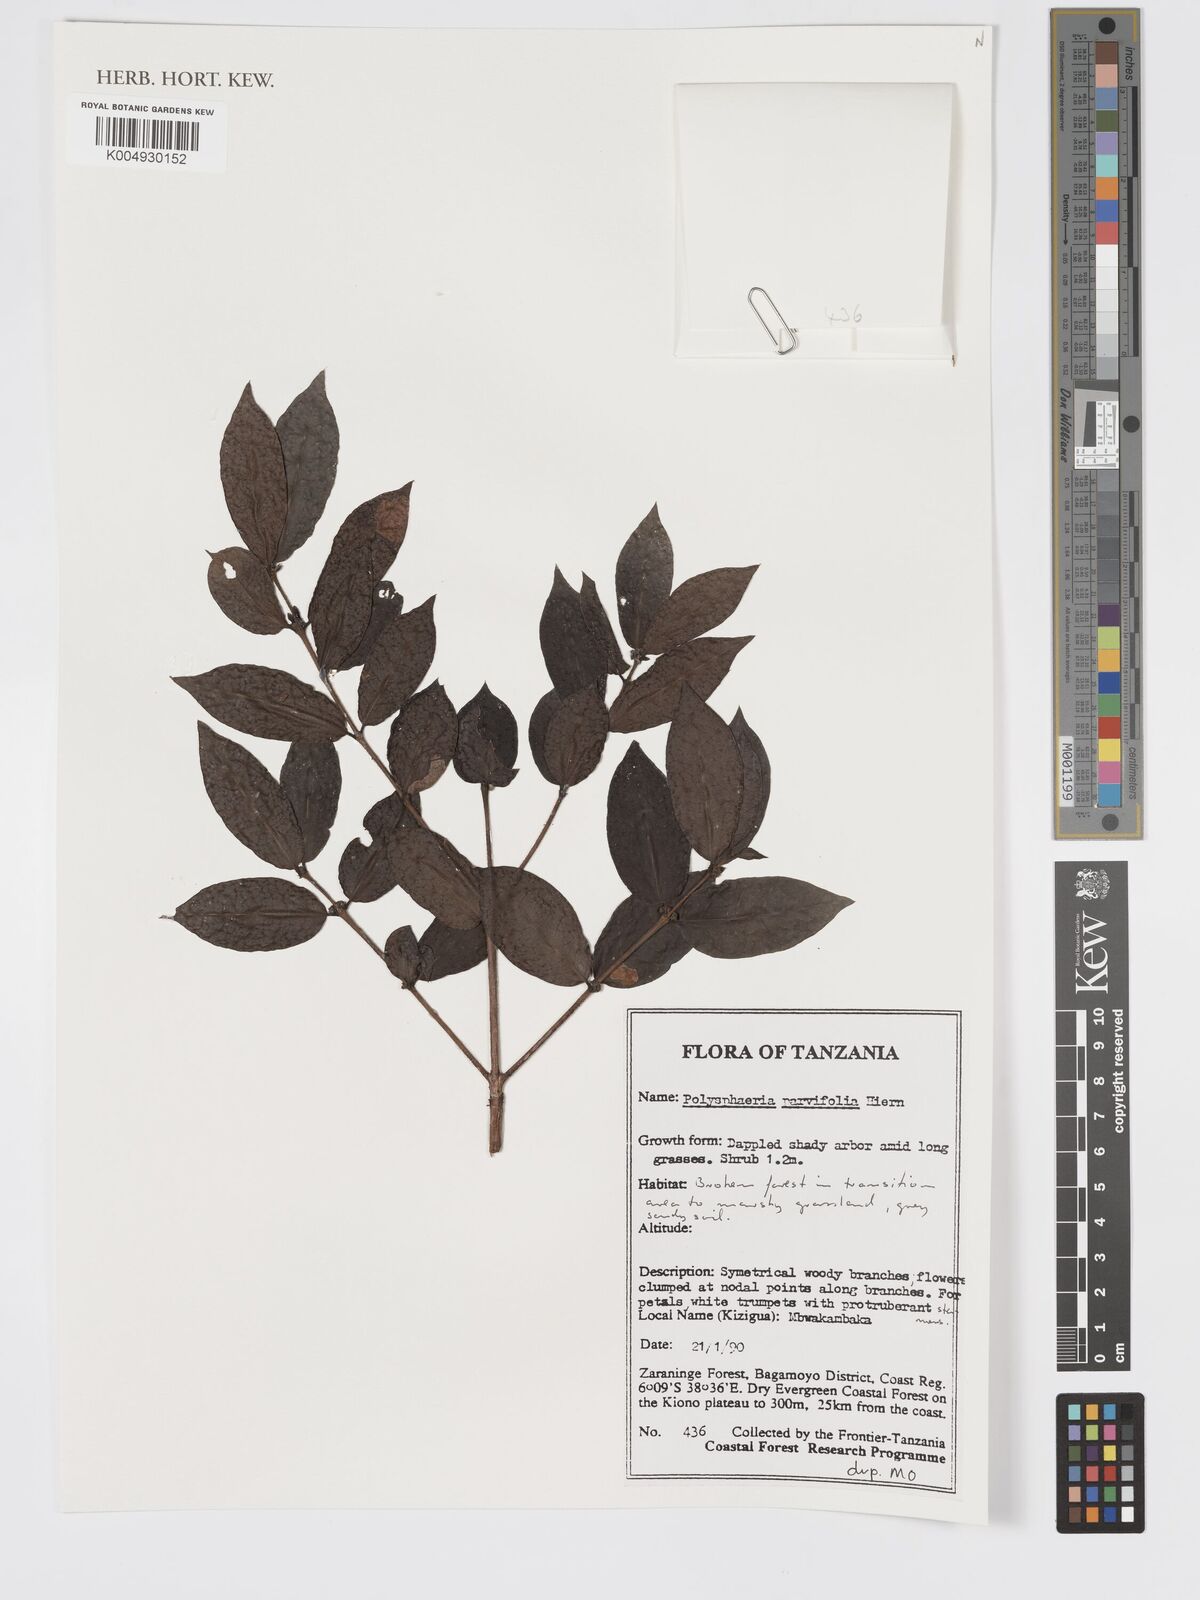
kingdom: Plantae
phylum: Tracheophyta
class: Magnoliopsida
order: Gentianales
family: Rubiaceae
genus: Polysphaeria
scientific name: Polysphaeria parvifolia
